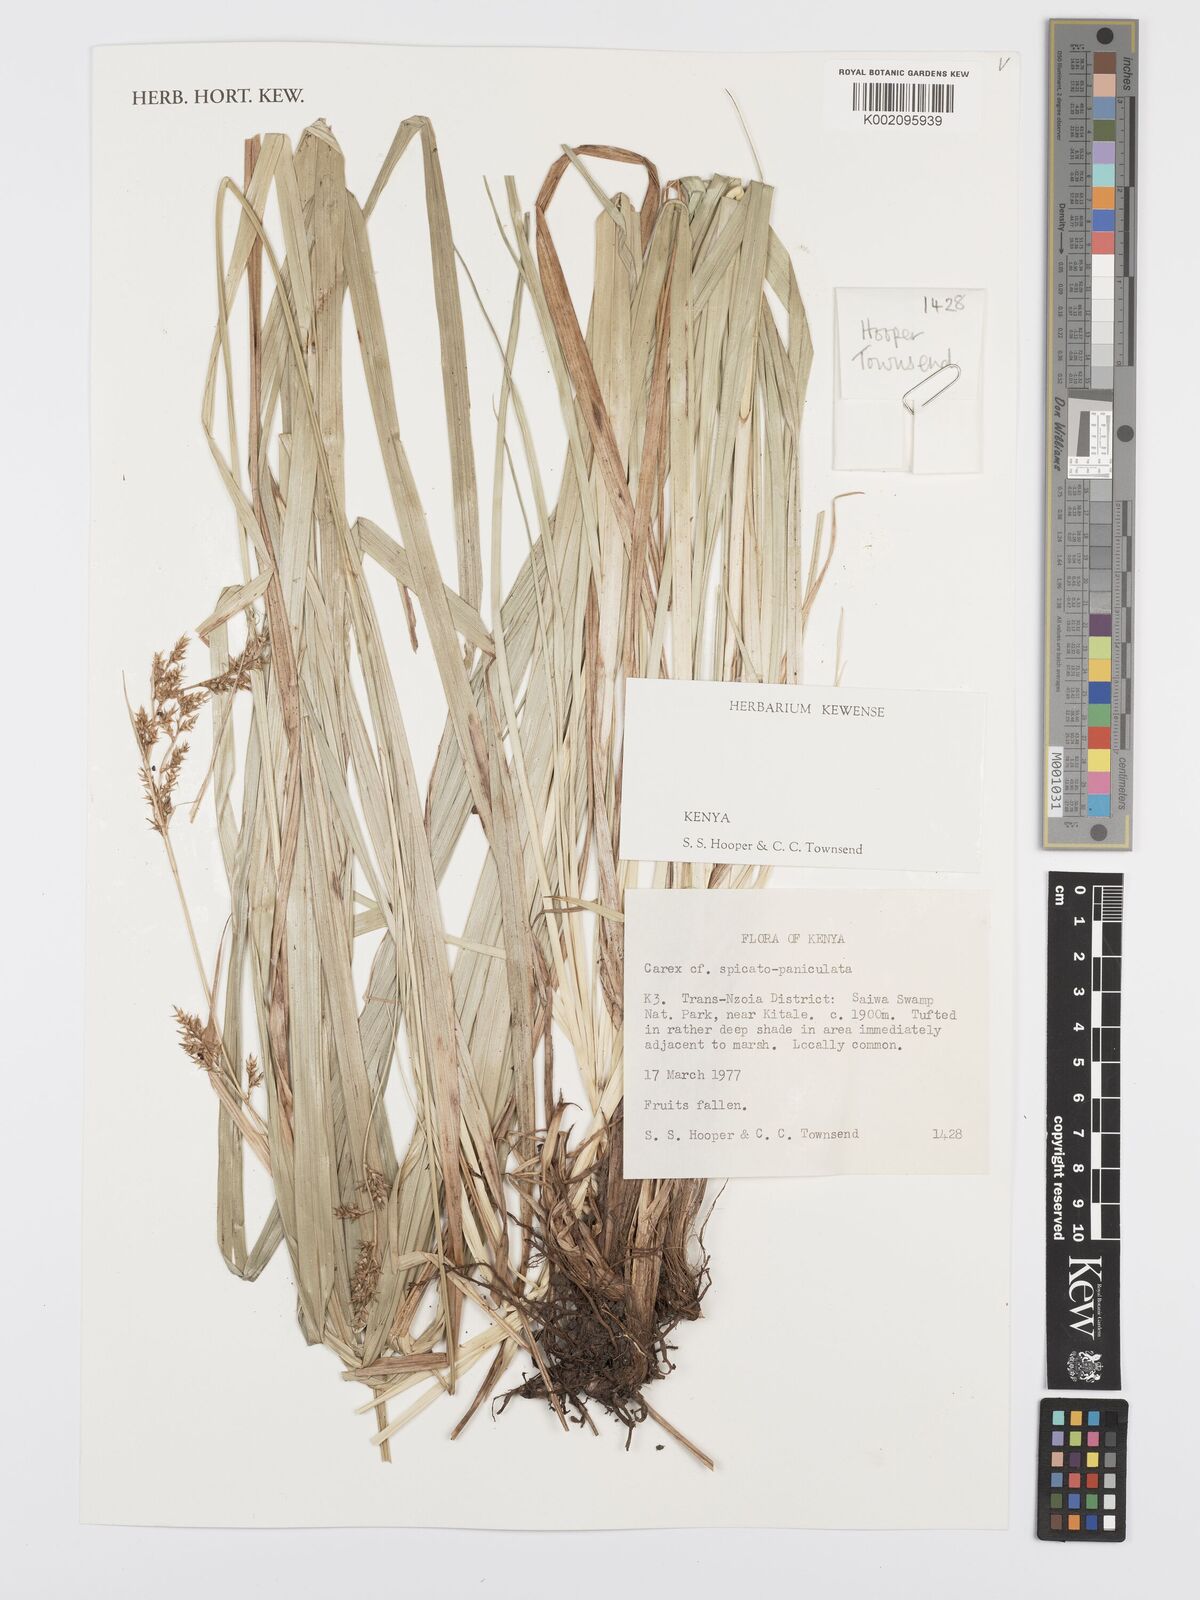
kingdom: Plantae
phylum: Tracheophyta
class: Liliopsida
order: Poales
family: Cyperaceae
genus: Carex
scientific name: Carex spicatopaniculata
